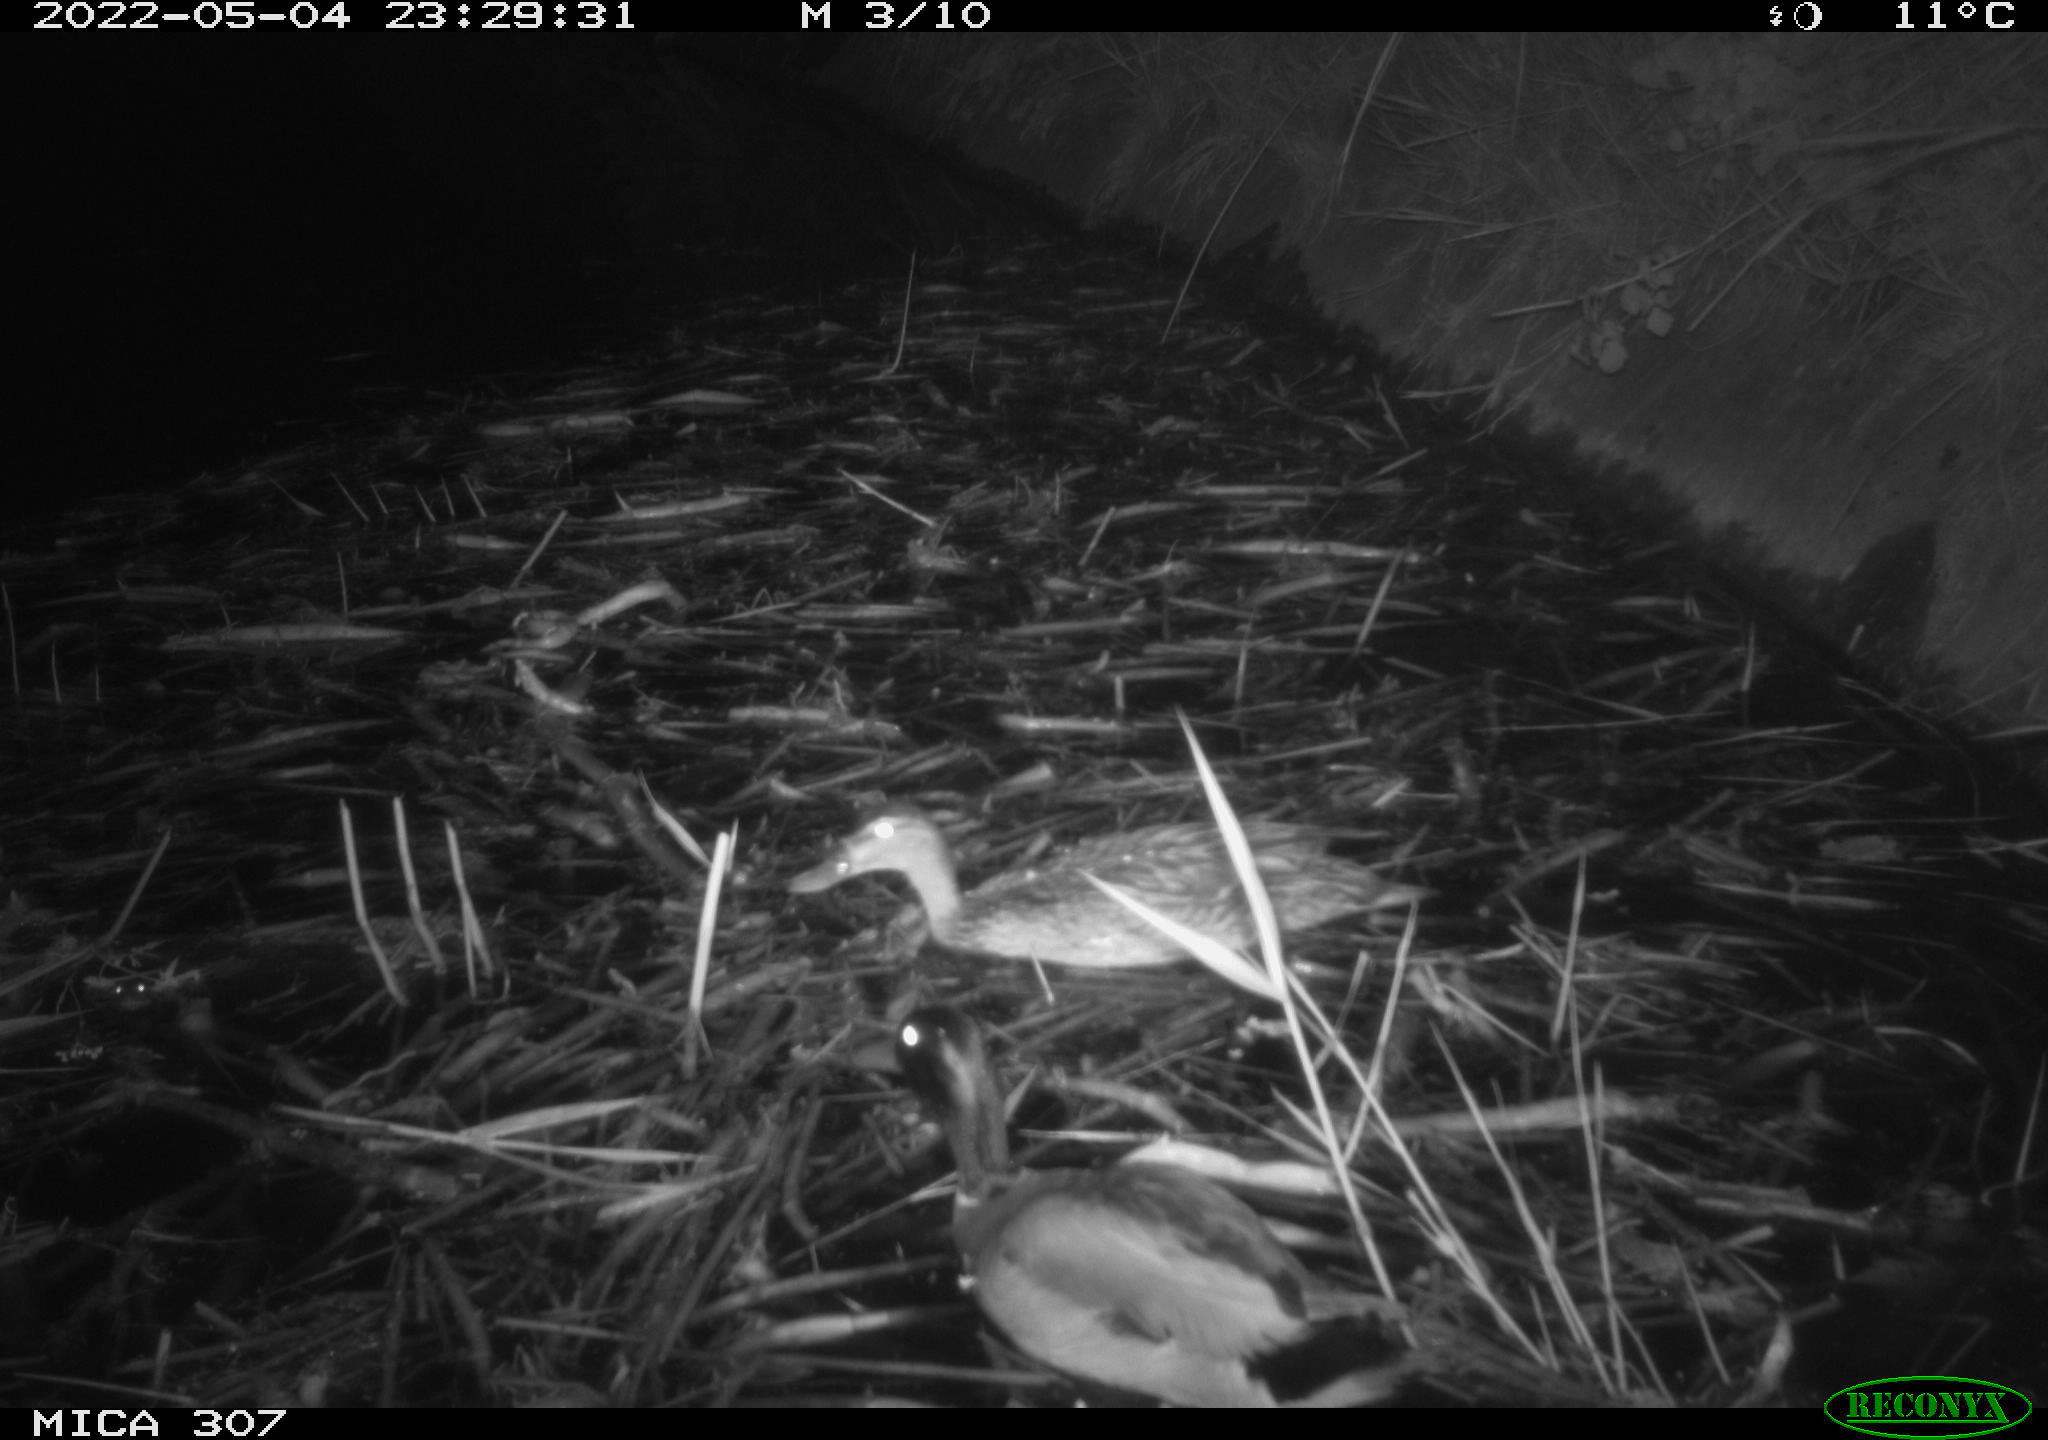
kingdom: Animalia
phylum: Chordata
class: Aves
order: Anseriformes
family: Anatidae
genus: Anas
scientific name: Anas platyrhynchos
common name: Mallard
